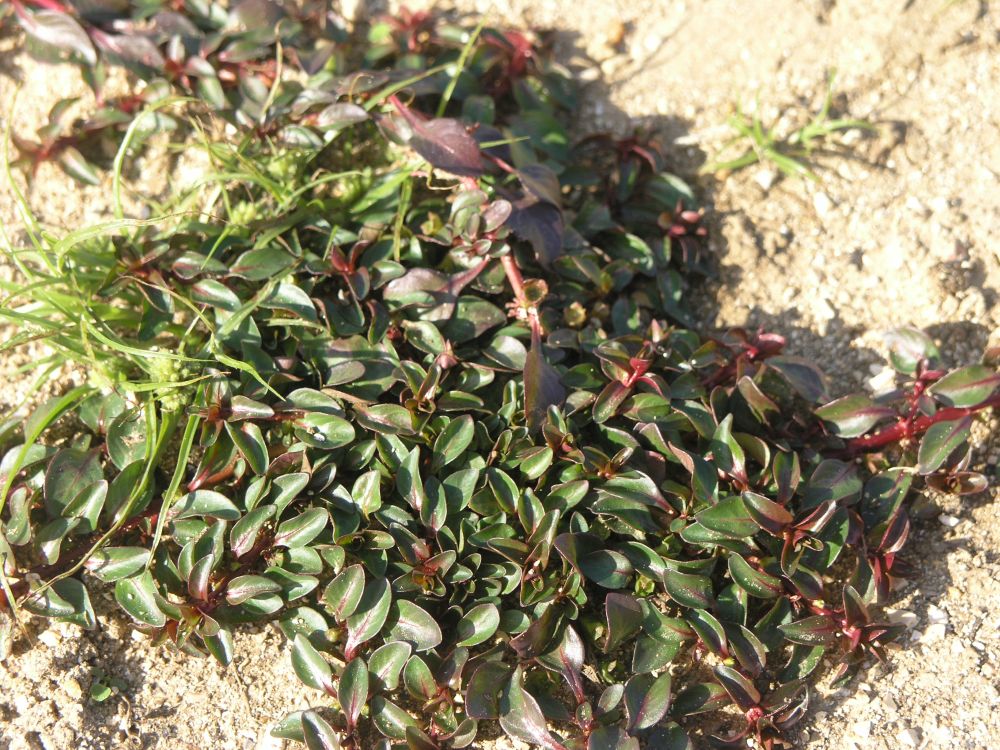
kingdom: Plantae
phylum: Tracheophyta
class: Magnoliopsida
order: Myrtales
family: Onagraceae
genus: Ludwigia
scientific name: Ludwigia palustris
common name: Hampshire-purslane
